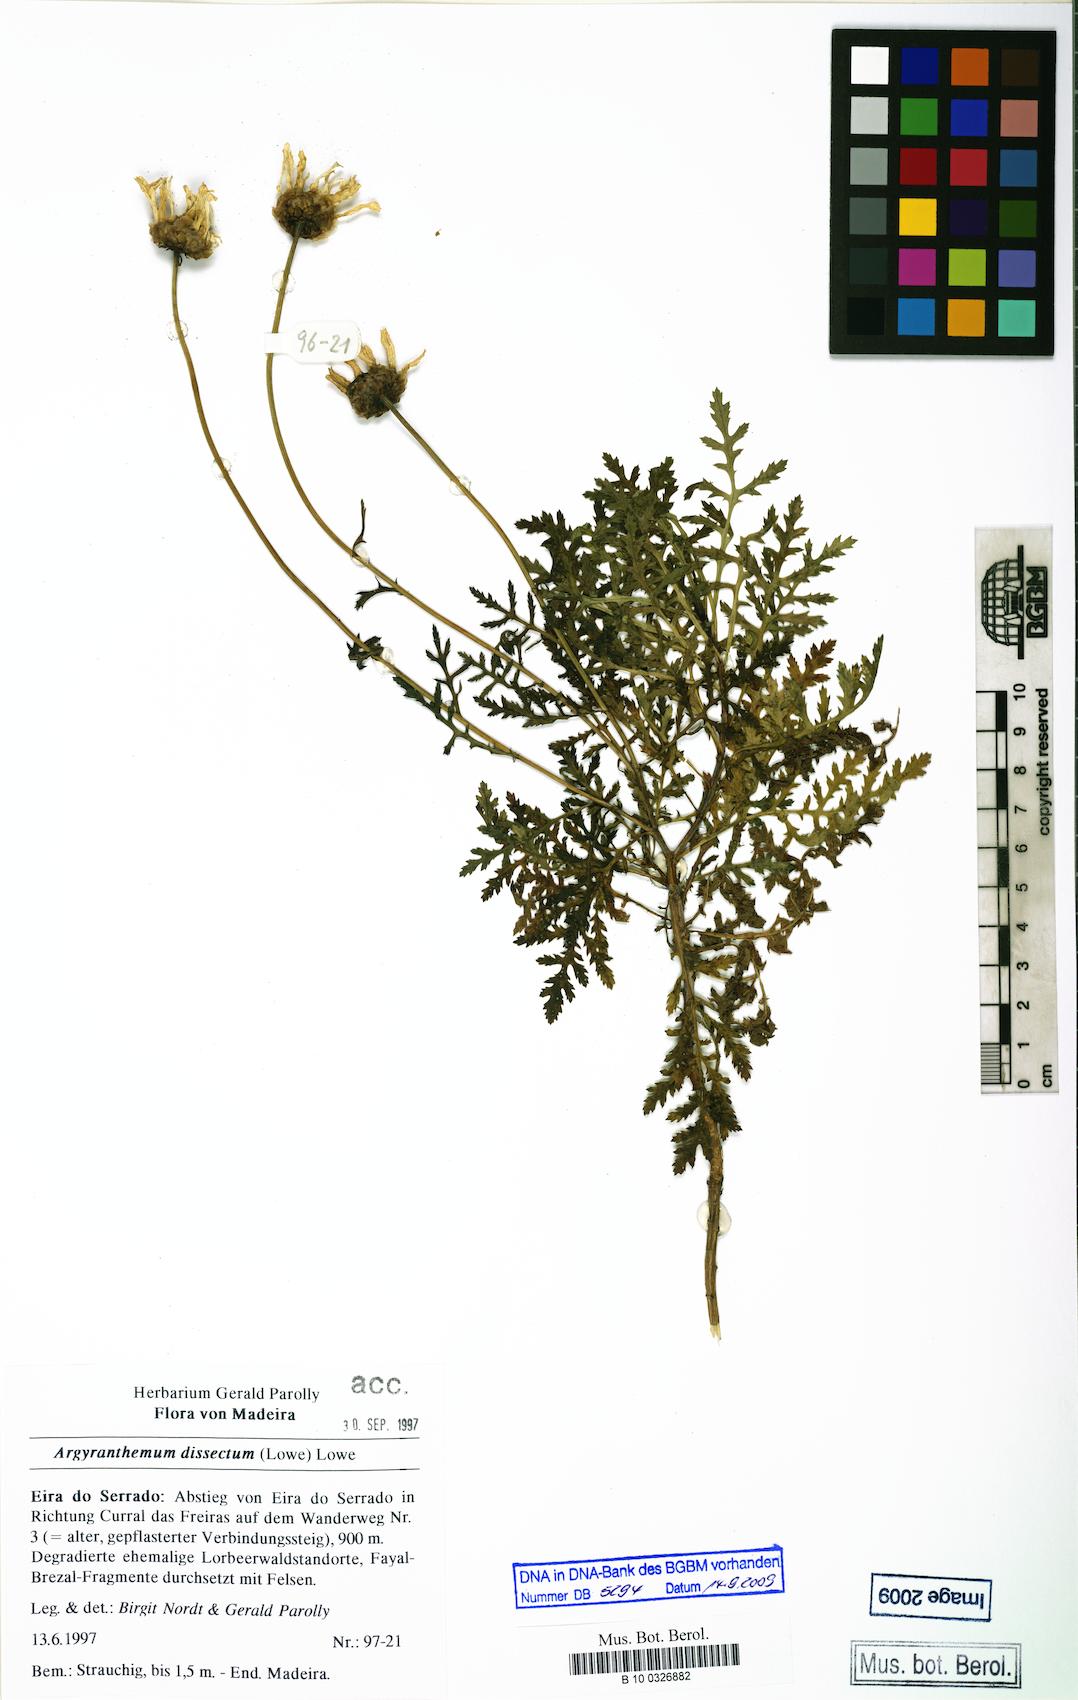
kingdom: Plantae
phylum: Tracheophyta
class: Magnoliopsida
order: Asterales
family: Asteraceae
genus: Argyranthemum
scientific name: Argyranthemum dissectum
